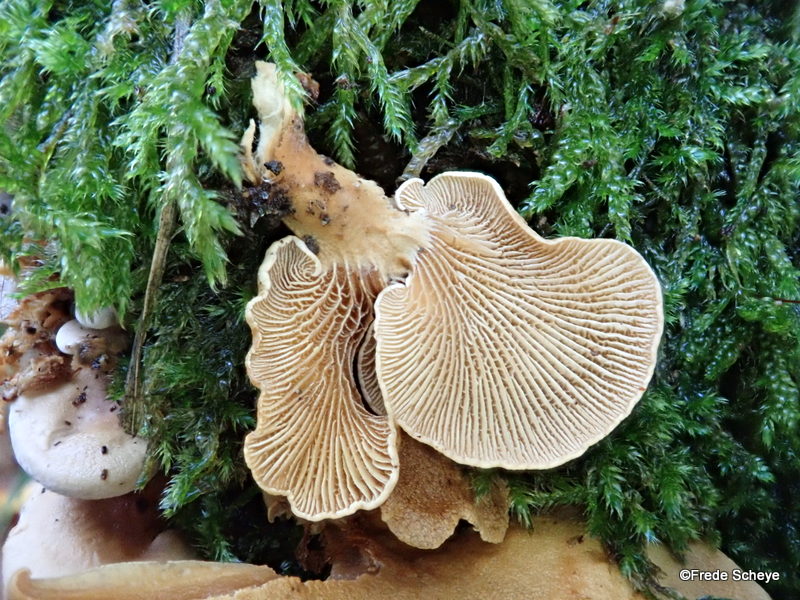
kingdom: Fungi
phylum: Basidiomycota
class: Agaricomycetes
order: Agaricales
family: Mycenaceae
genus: Panellus
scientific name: Panellus stipticus
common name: kliddet epaulethat
